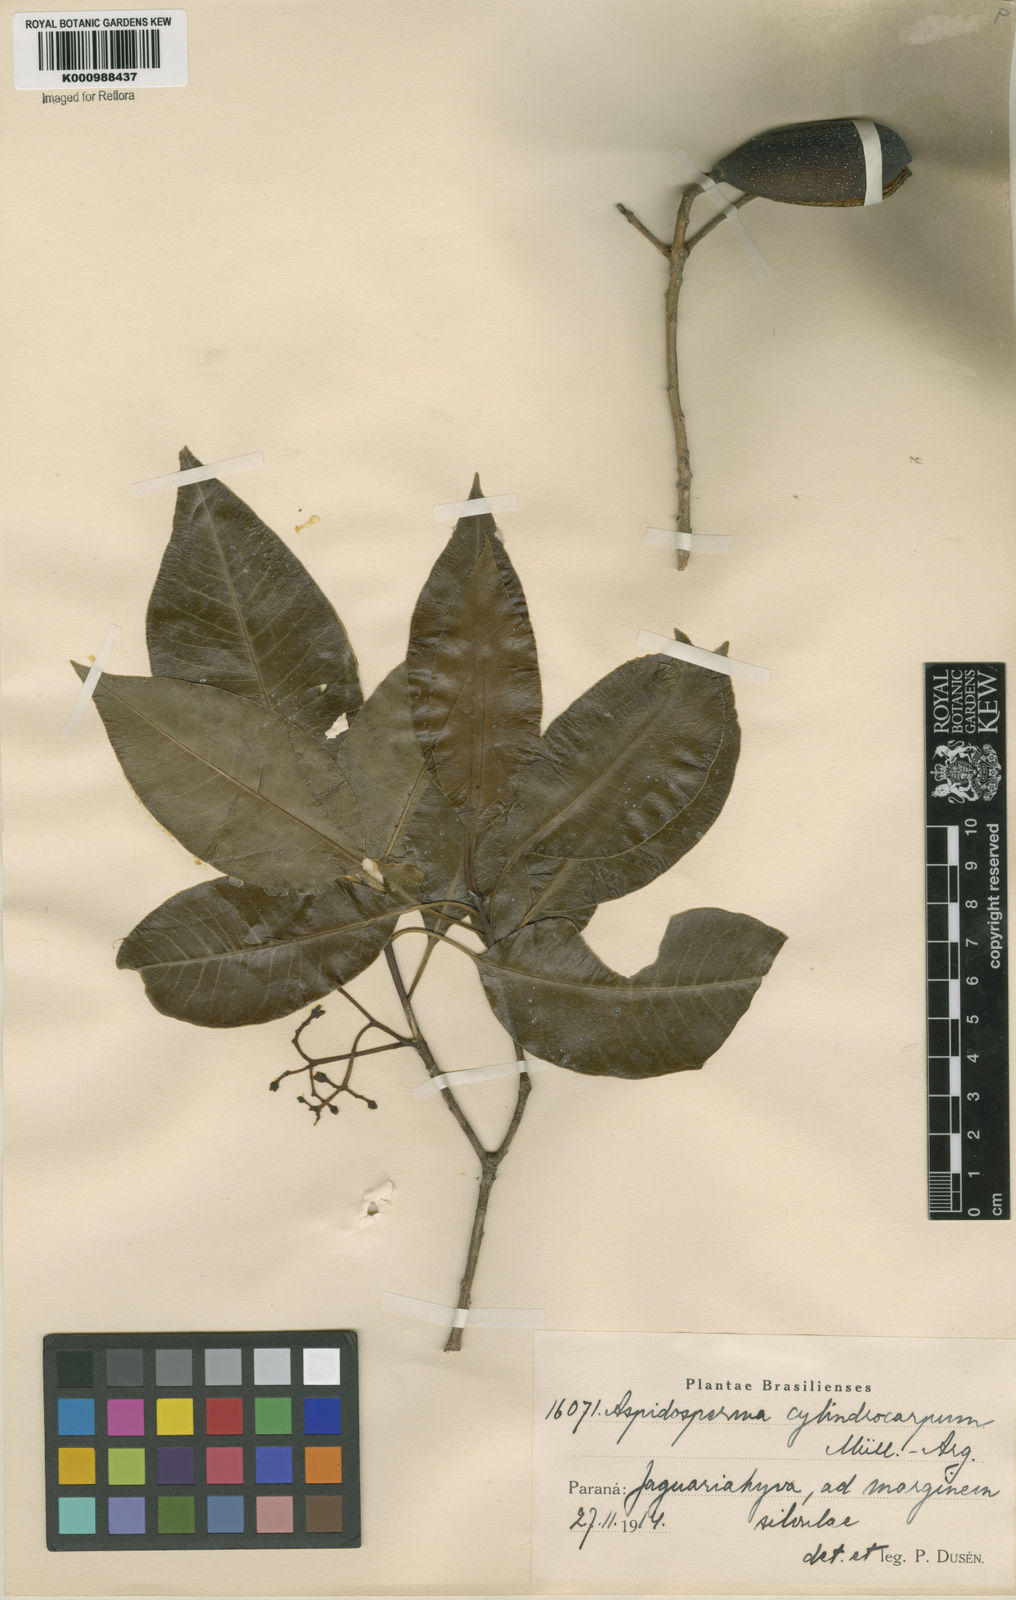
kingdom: Plantae
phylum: Tracheophyta
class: Magnoliopsida
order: Gentianales
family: Apocynaceae
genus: Aspidosperma
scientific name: Aspidosperma
